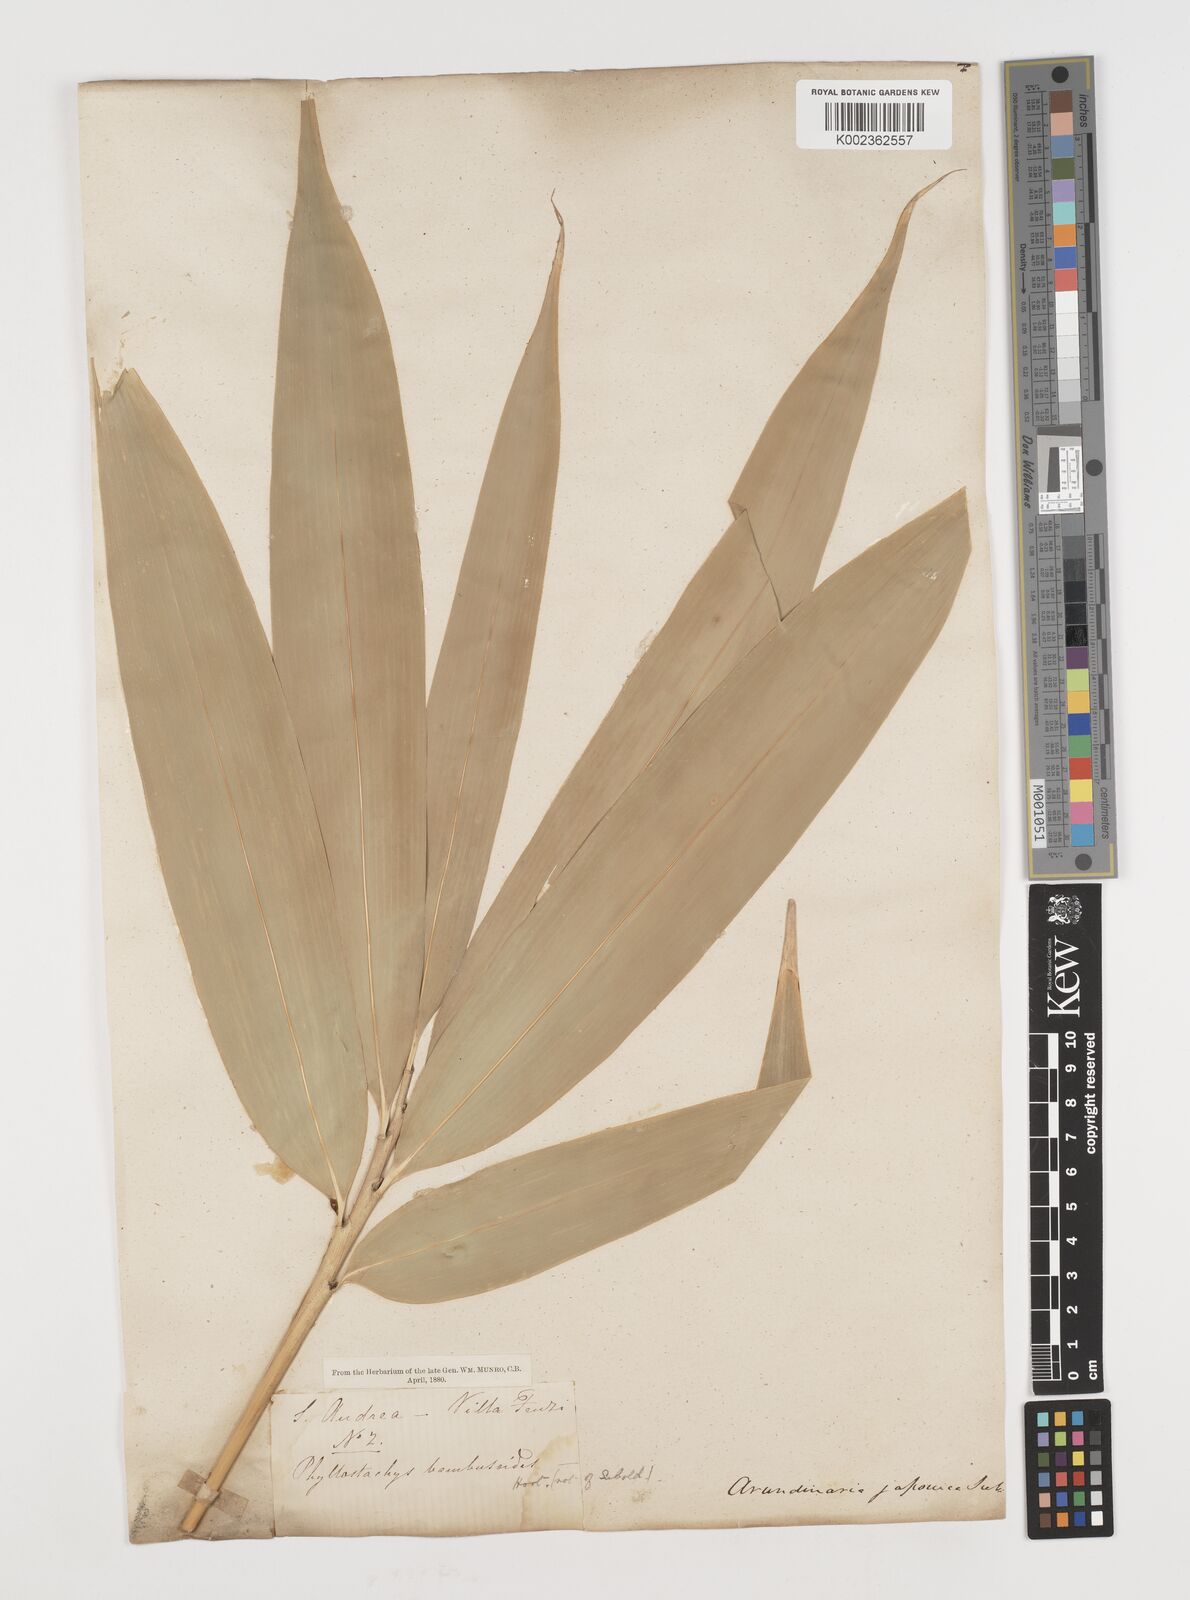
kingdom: Plantae
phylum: Tracheophyta
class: Liliopsida
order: Poales
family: Poaceae
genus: Pseudosasa
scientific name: Pseudosasa japonica
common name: Arrow bamboo
